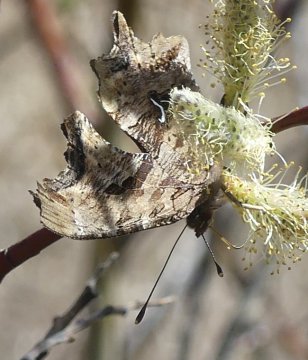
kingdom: Animalia
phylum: Arthropoda
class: Insecta
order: Lepidoptera
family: Nymphalidae
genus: Polygonia
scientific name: Polygonia satyrus
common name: Satyr Comma
